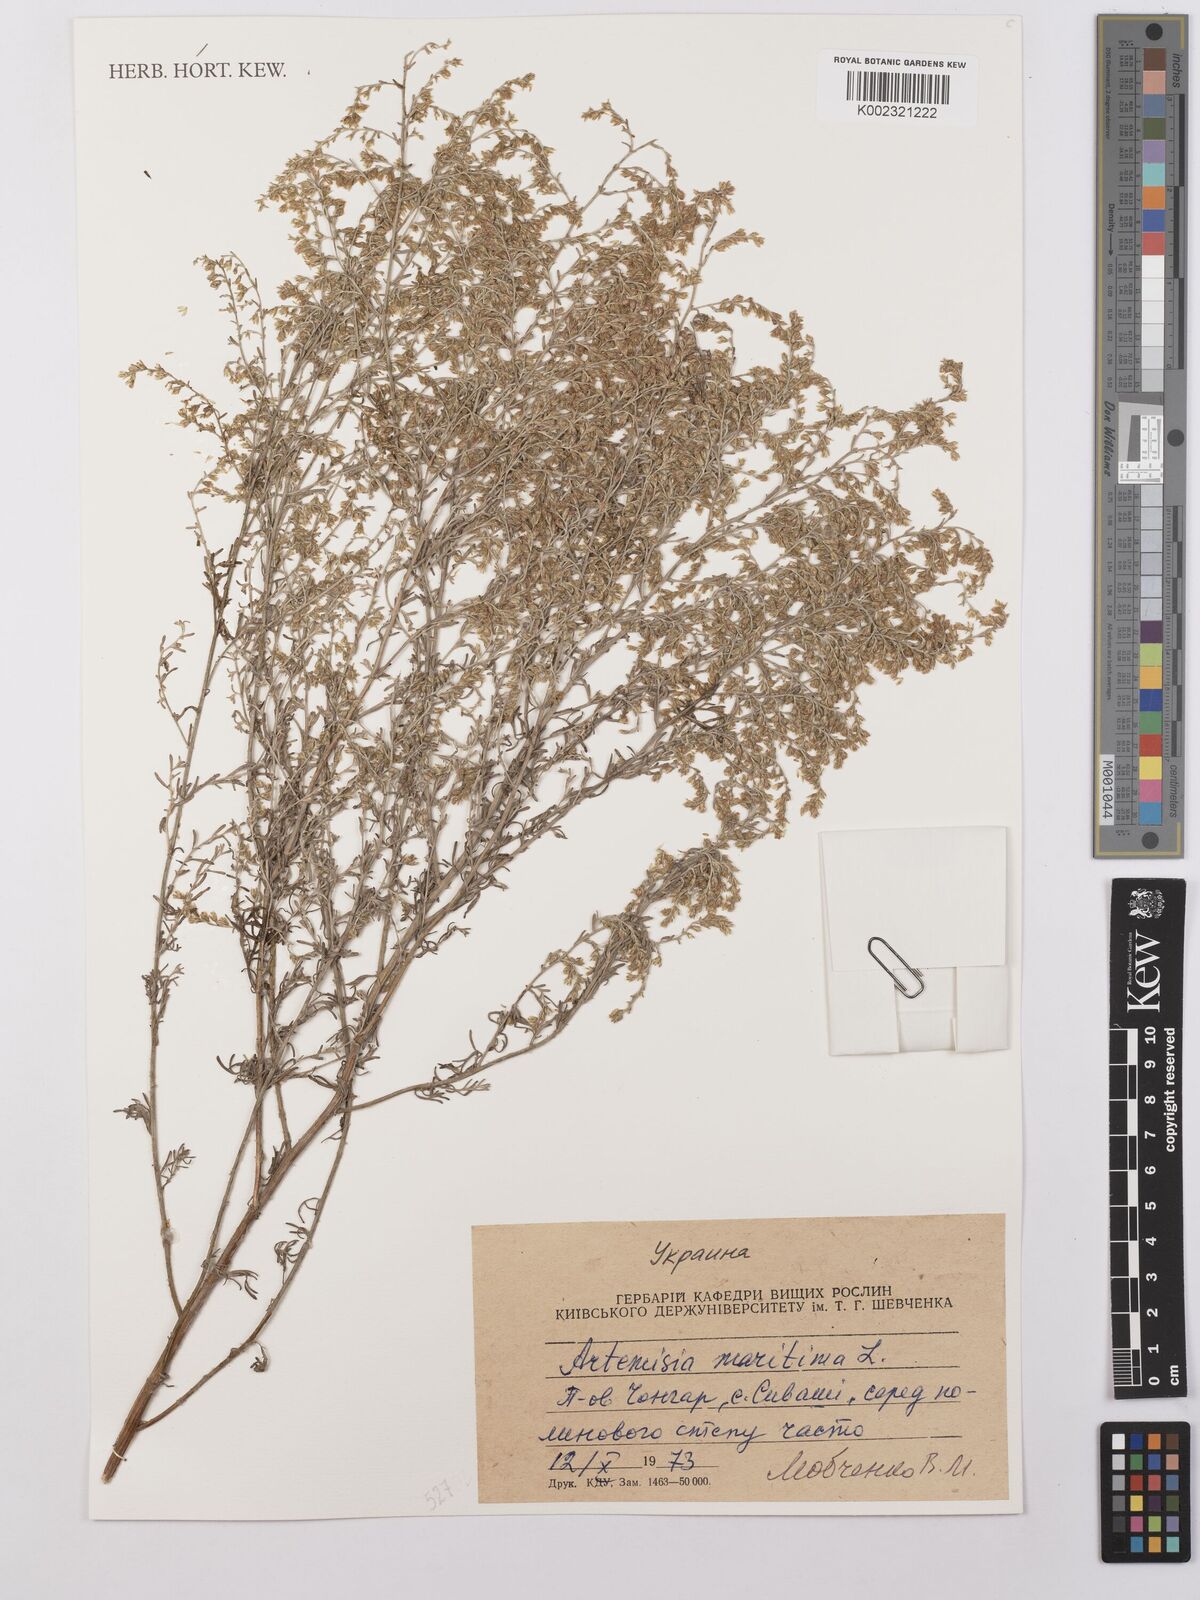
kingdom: Plantae
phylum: Tracheophyta
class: Magnoliopsida
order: Asterales
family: Asteraceae
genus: Artemisia
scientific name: Artemisia maritima
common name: Wormseed
